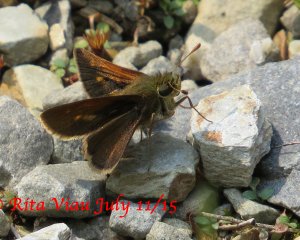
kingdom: Animalia
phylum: Arthropoda
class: Insecta
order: Lepidoptera
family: Hesperiidae
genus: Polites
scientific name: Polites themistocles
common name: Tawny-edged Skipper
